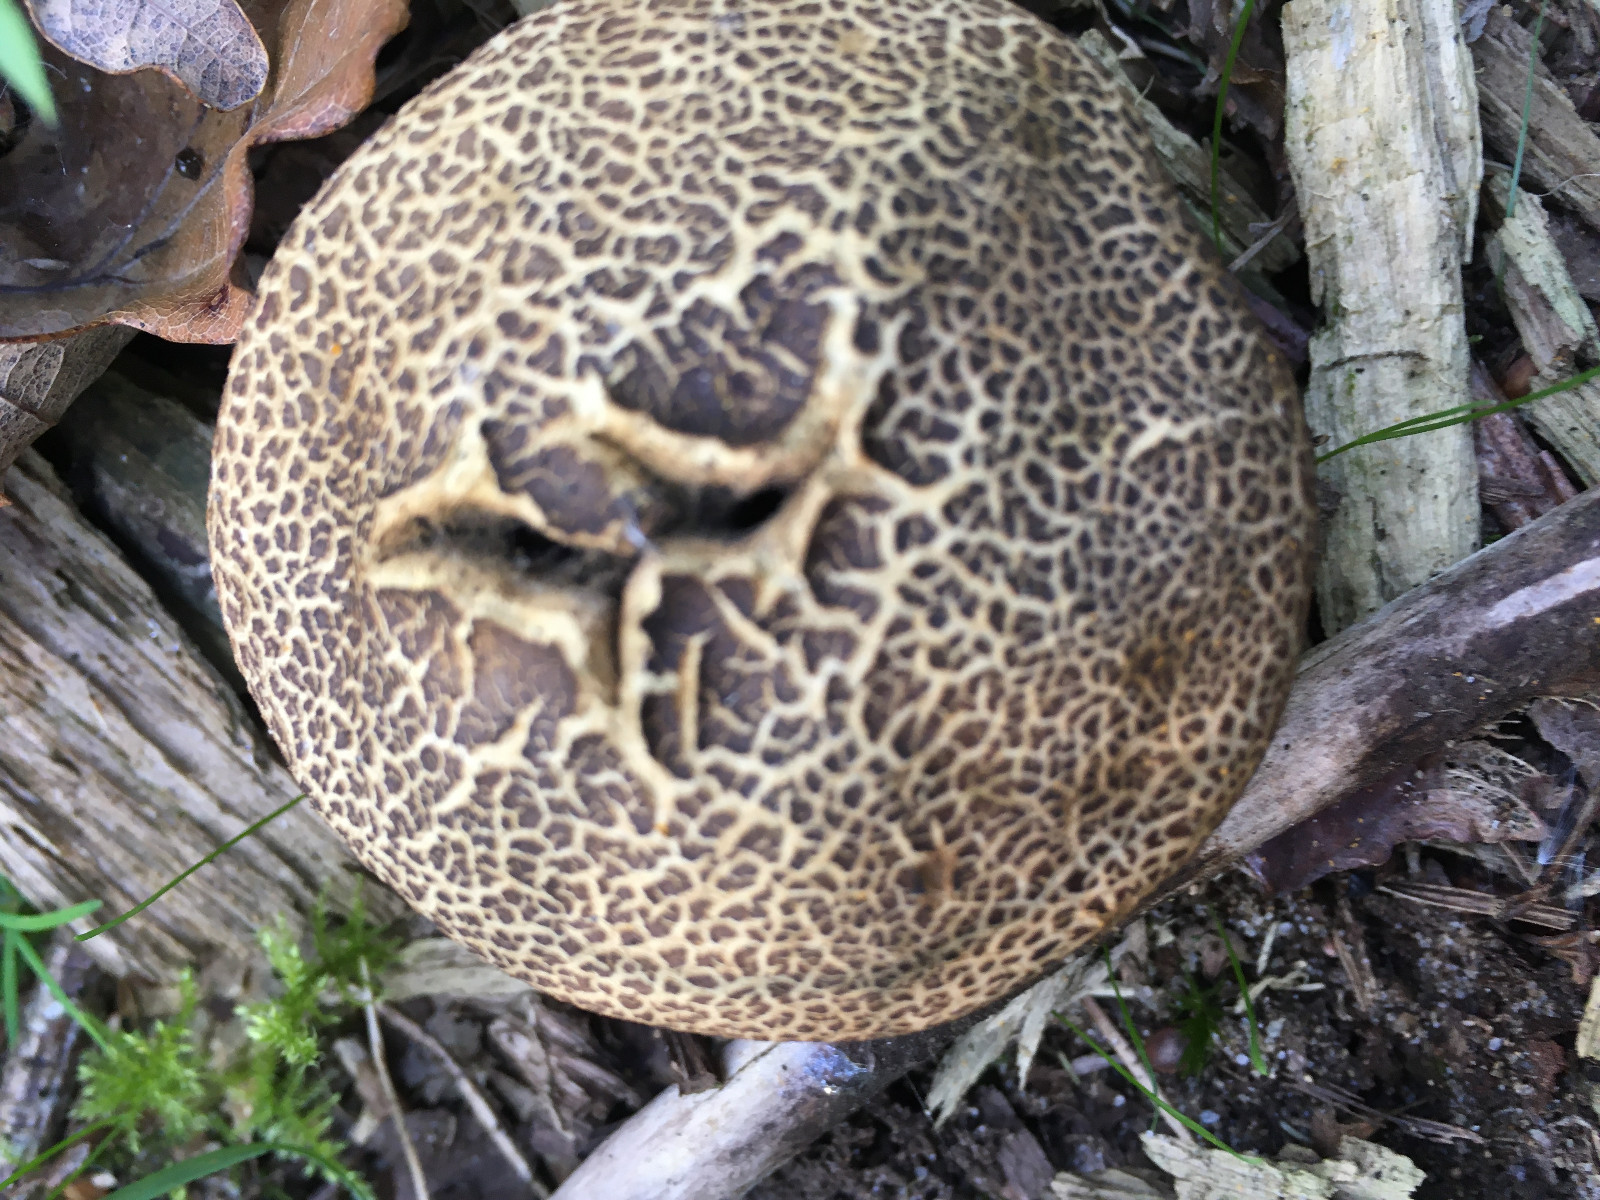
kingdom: Fungi
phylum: Basidiomycota
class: Agaricomycetes
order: Boletales
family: Sclerodermataceae
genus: Scleroderma
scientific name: Scleroderma
